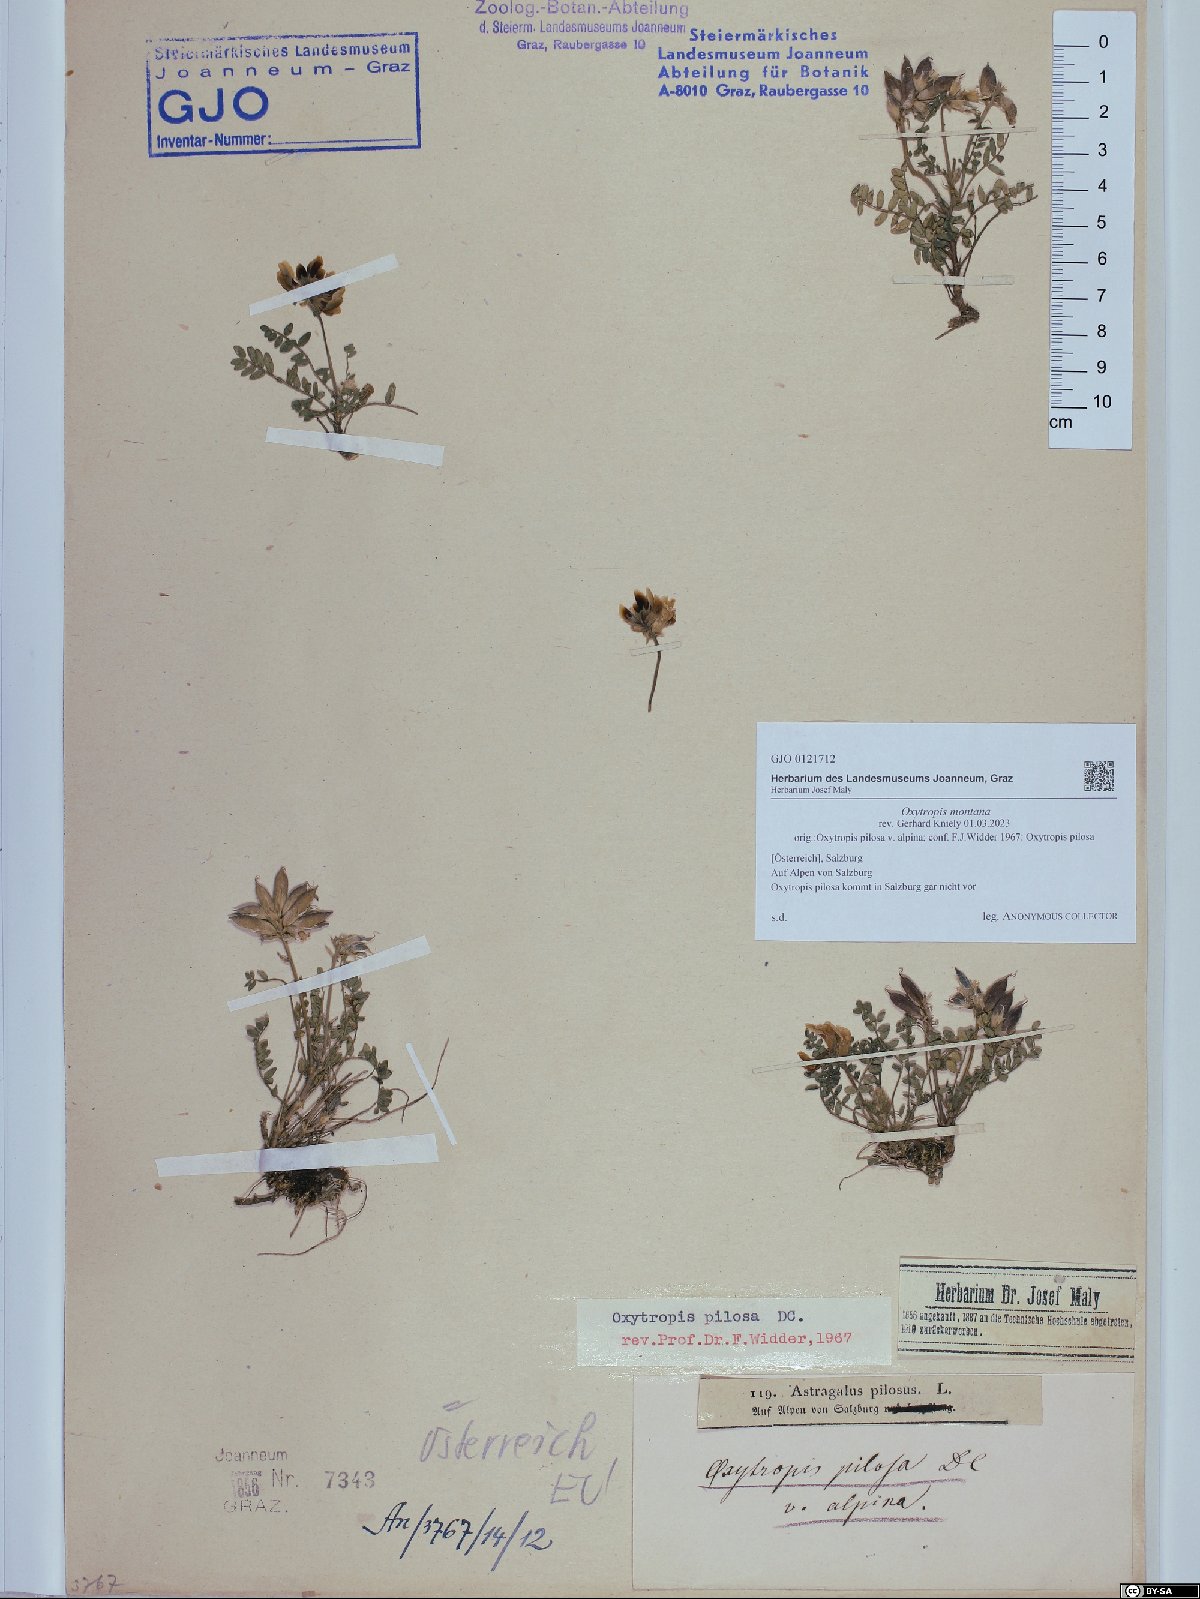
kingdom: Plantae
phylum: Tracheophyta
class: Magnoliopsida
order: Fabales
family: Fabaceae
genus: Oxytropis
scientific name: Oxytropis montana
